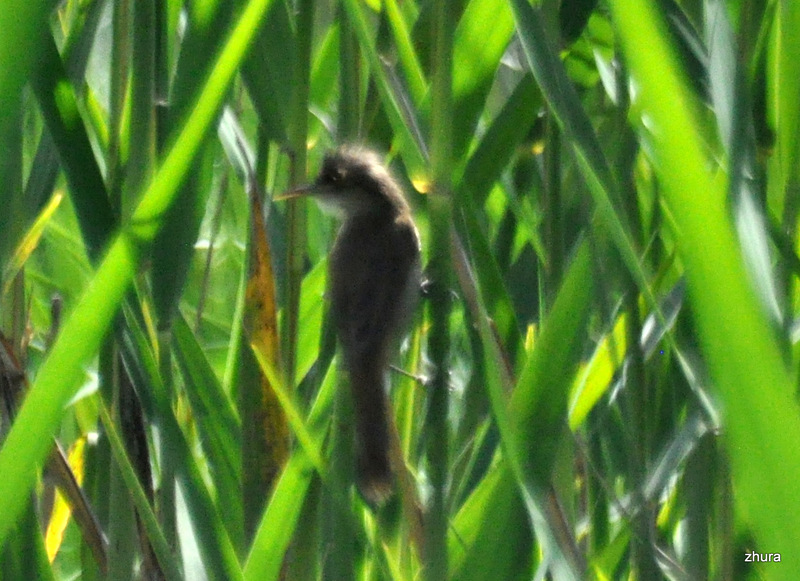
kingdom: Animalia
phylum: Chordata
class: Aves
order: Passeriformes
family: Acrocephalidae
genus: Acrocephalus
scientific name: Acrocephalus stentoreus
